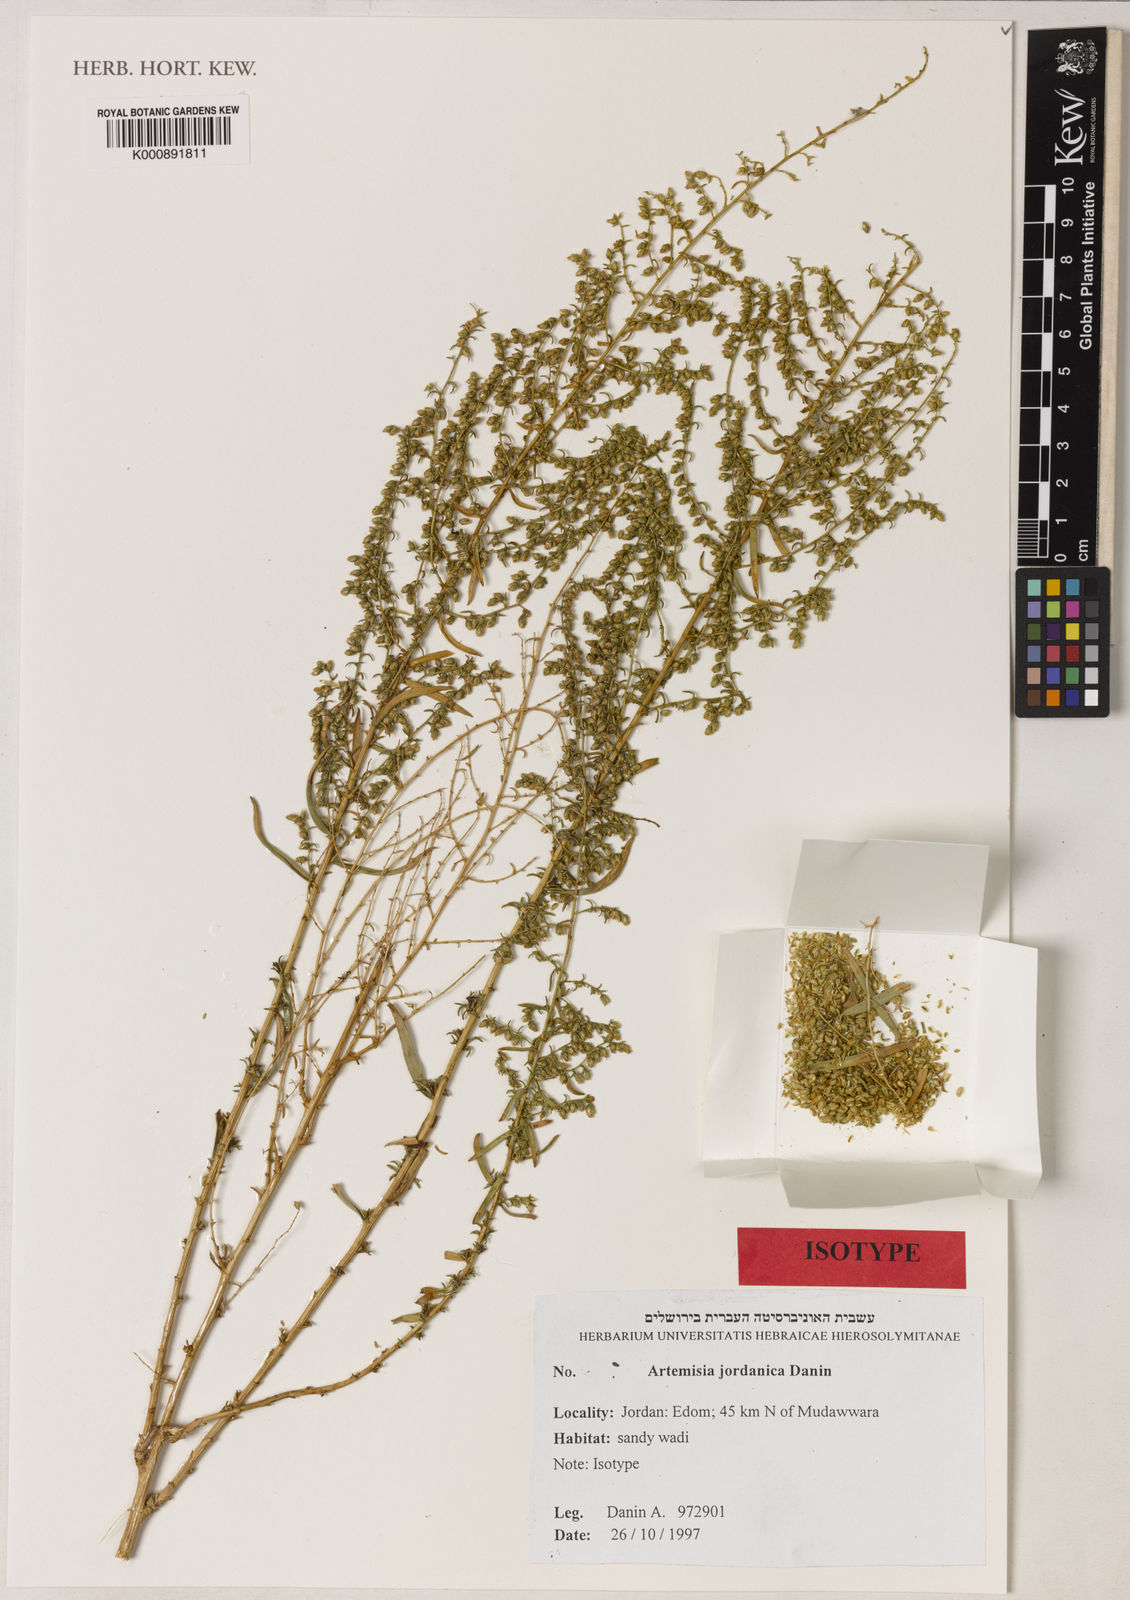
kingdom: Plantae
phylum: Tracheophyta
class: Magnoliopsida
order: Asterales
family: Asteraceae
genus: Artemisia
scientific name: Artemisia jordanica
